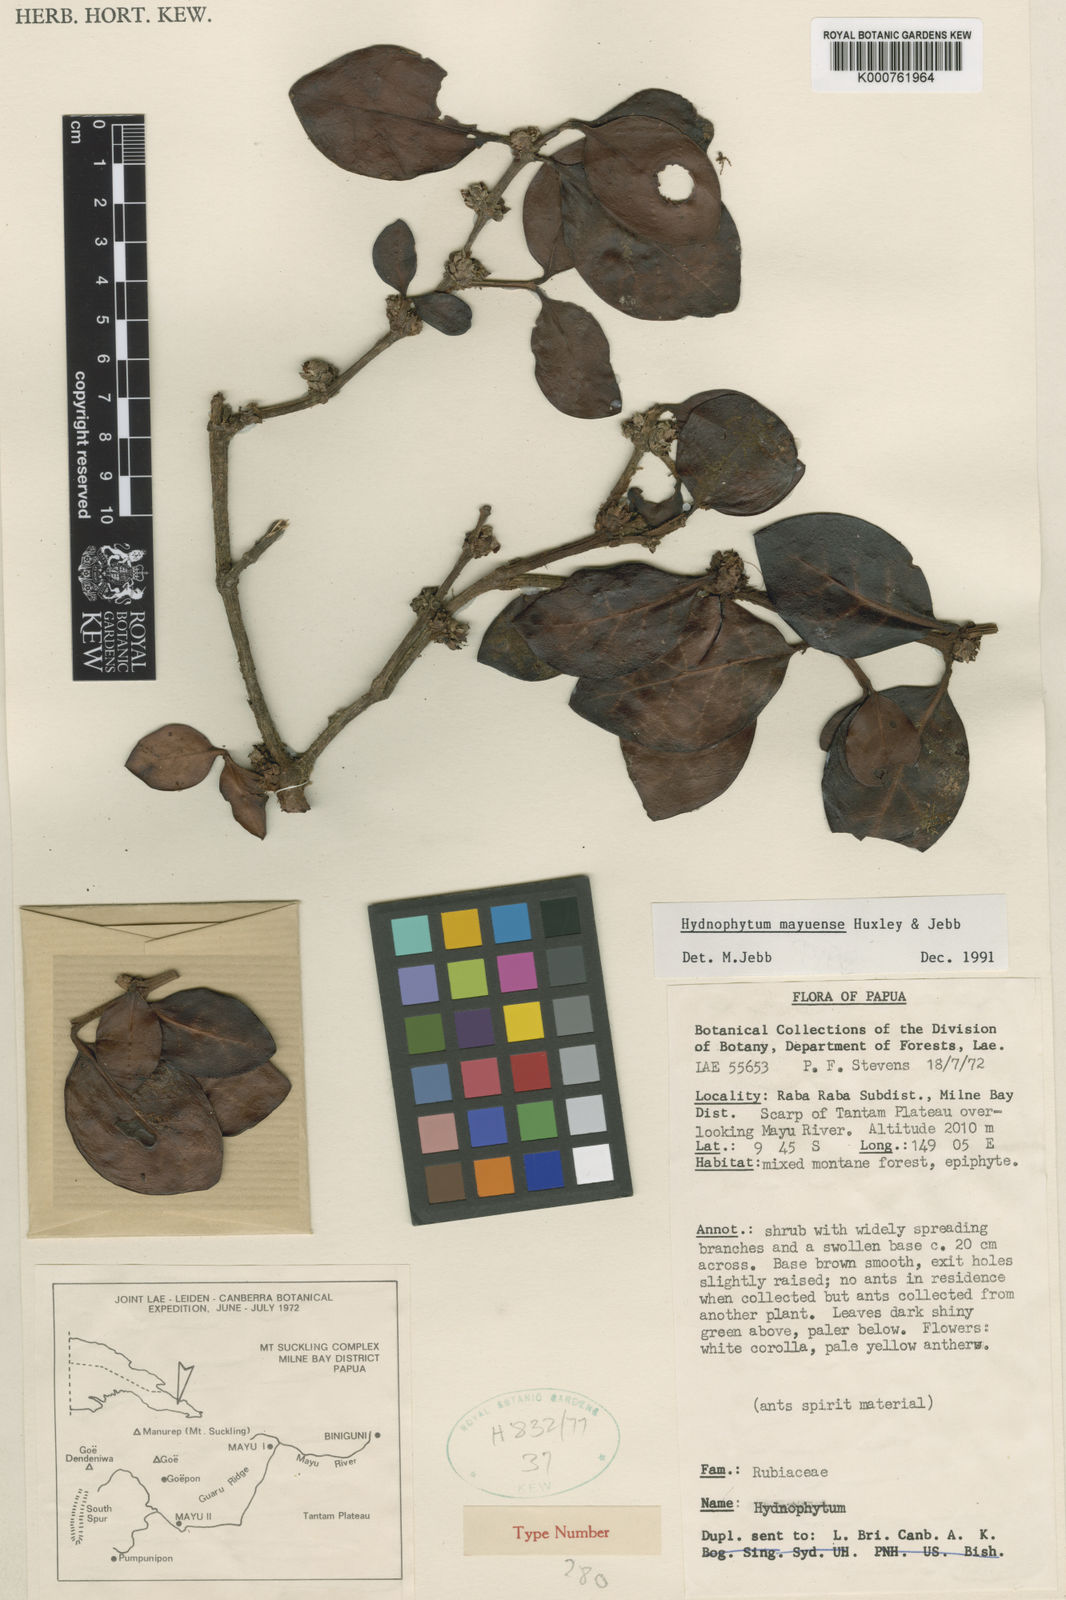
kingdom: Plantae
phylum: Tracheophyta
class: Magnoliopsida
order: Gentianales
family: Rubiaceae
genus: Hydnophytum
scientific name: Hydnophytum
